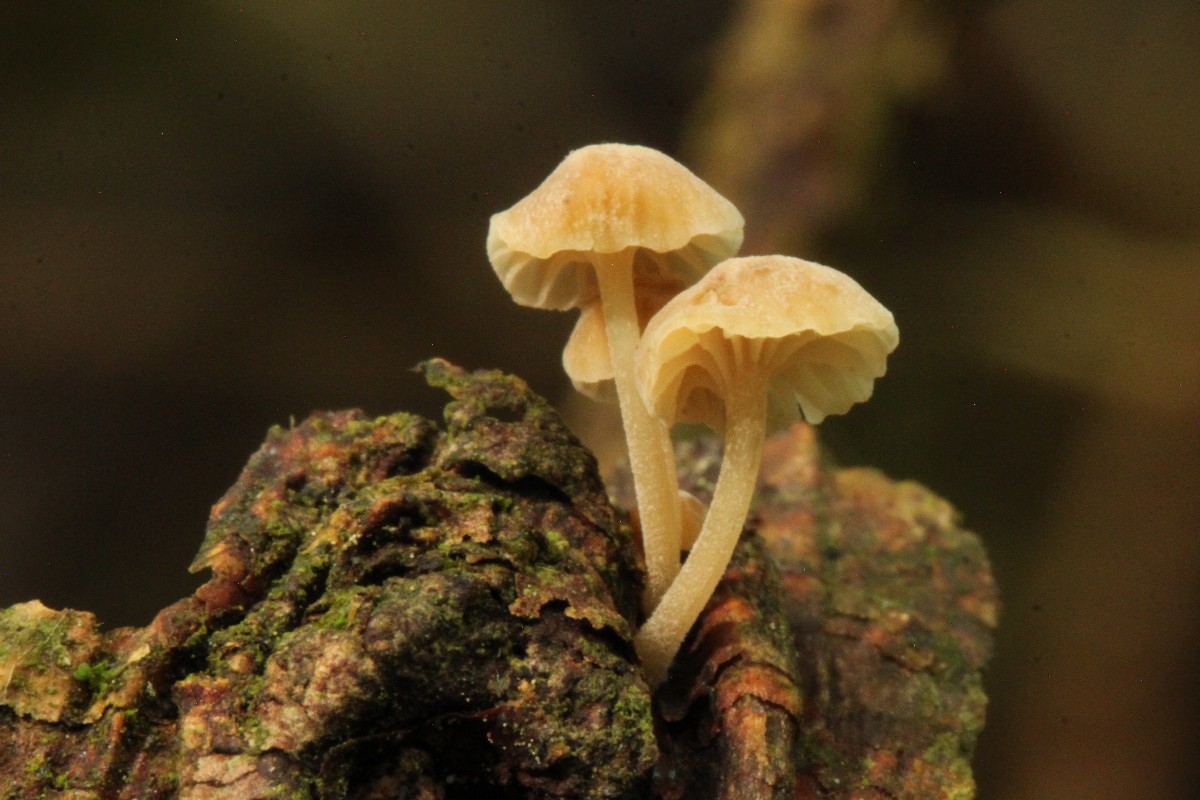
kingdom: Fungi
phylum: Basidiomycota
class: Agaricomycetes
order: Agaricales
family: Porotheleaceae
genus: Phloeomana
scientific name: Phloeomana clavata
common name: brunbladet huesvamp
